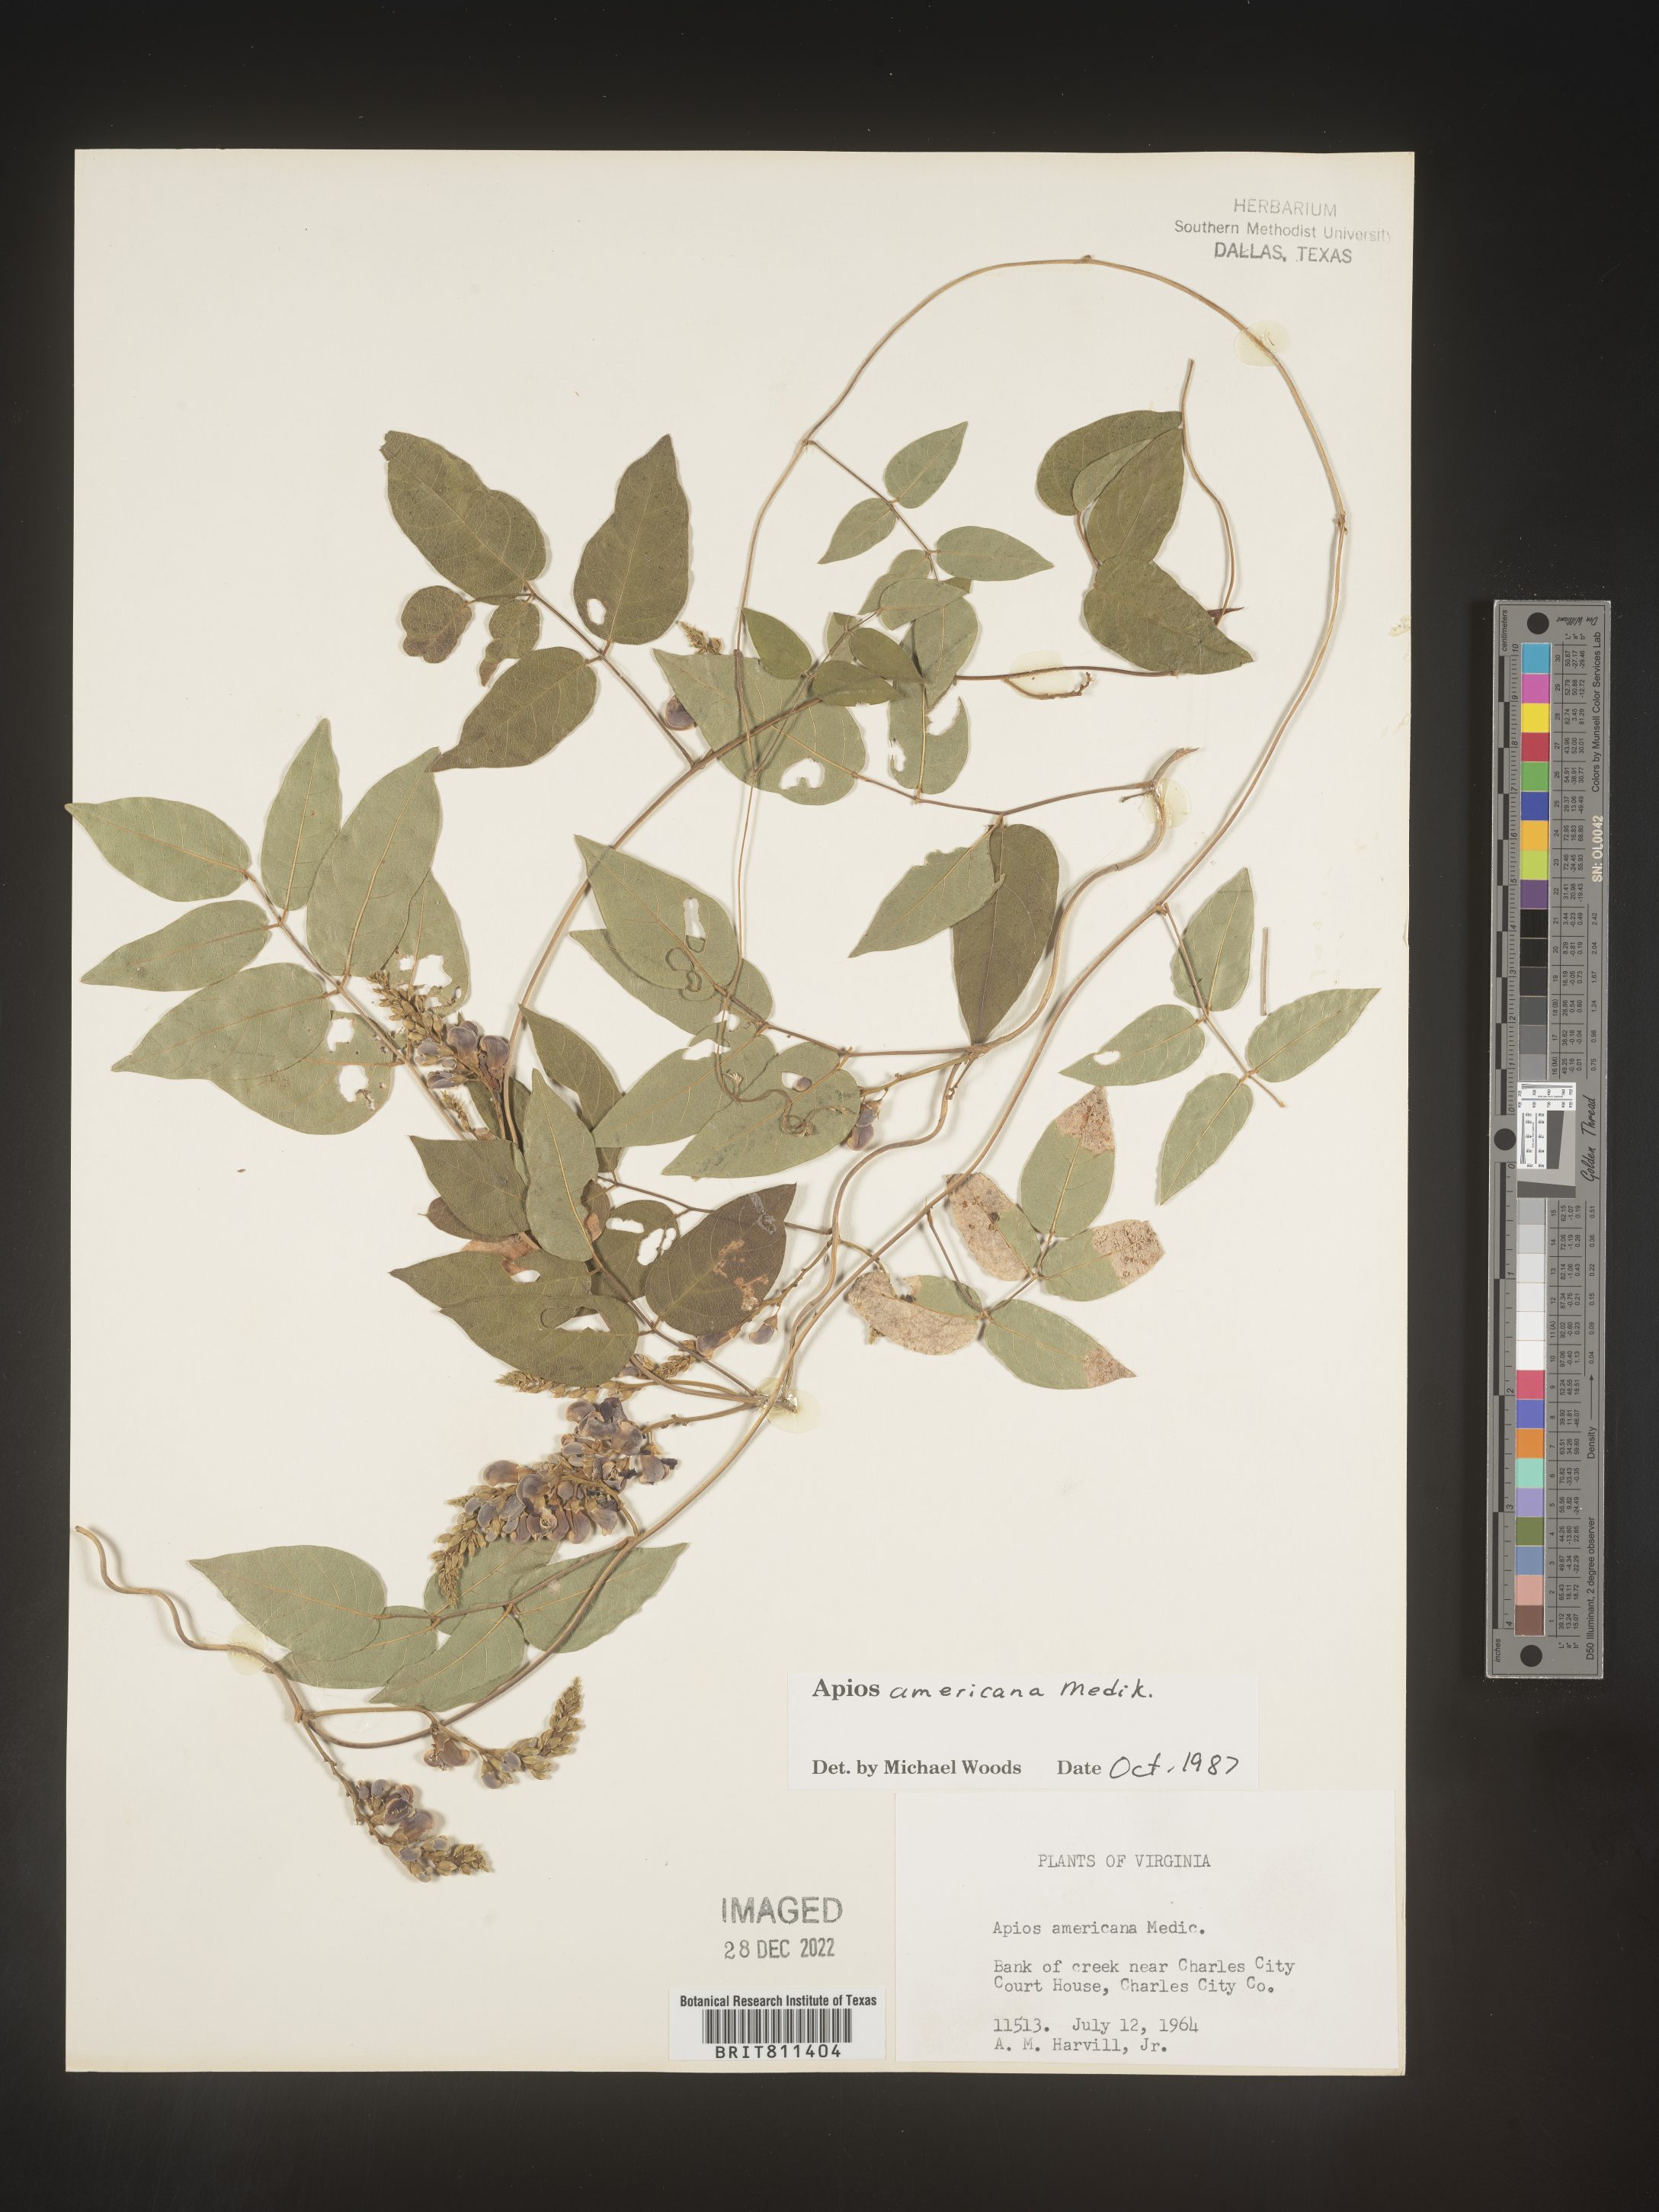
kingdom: Plantae
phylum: Tracheophyta
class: Magnoliopsida
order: Fabales
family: Fabaceae
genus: Apios
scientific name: Apios americana
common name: American potato-bean
